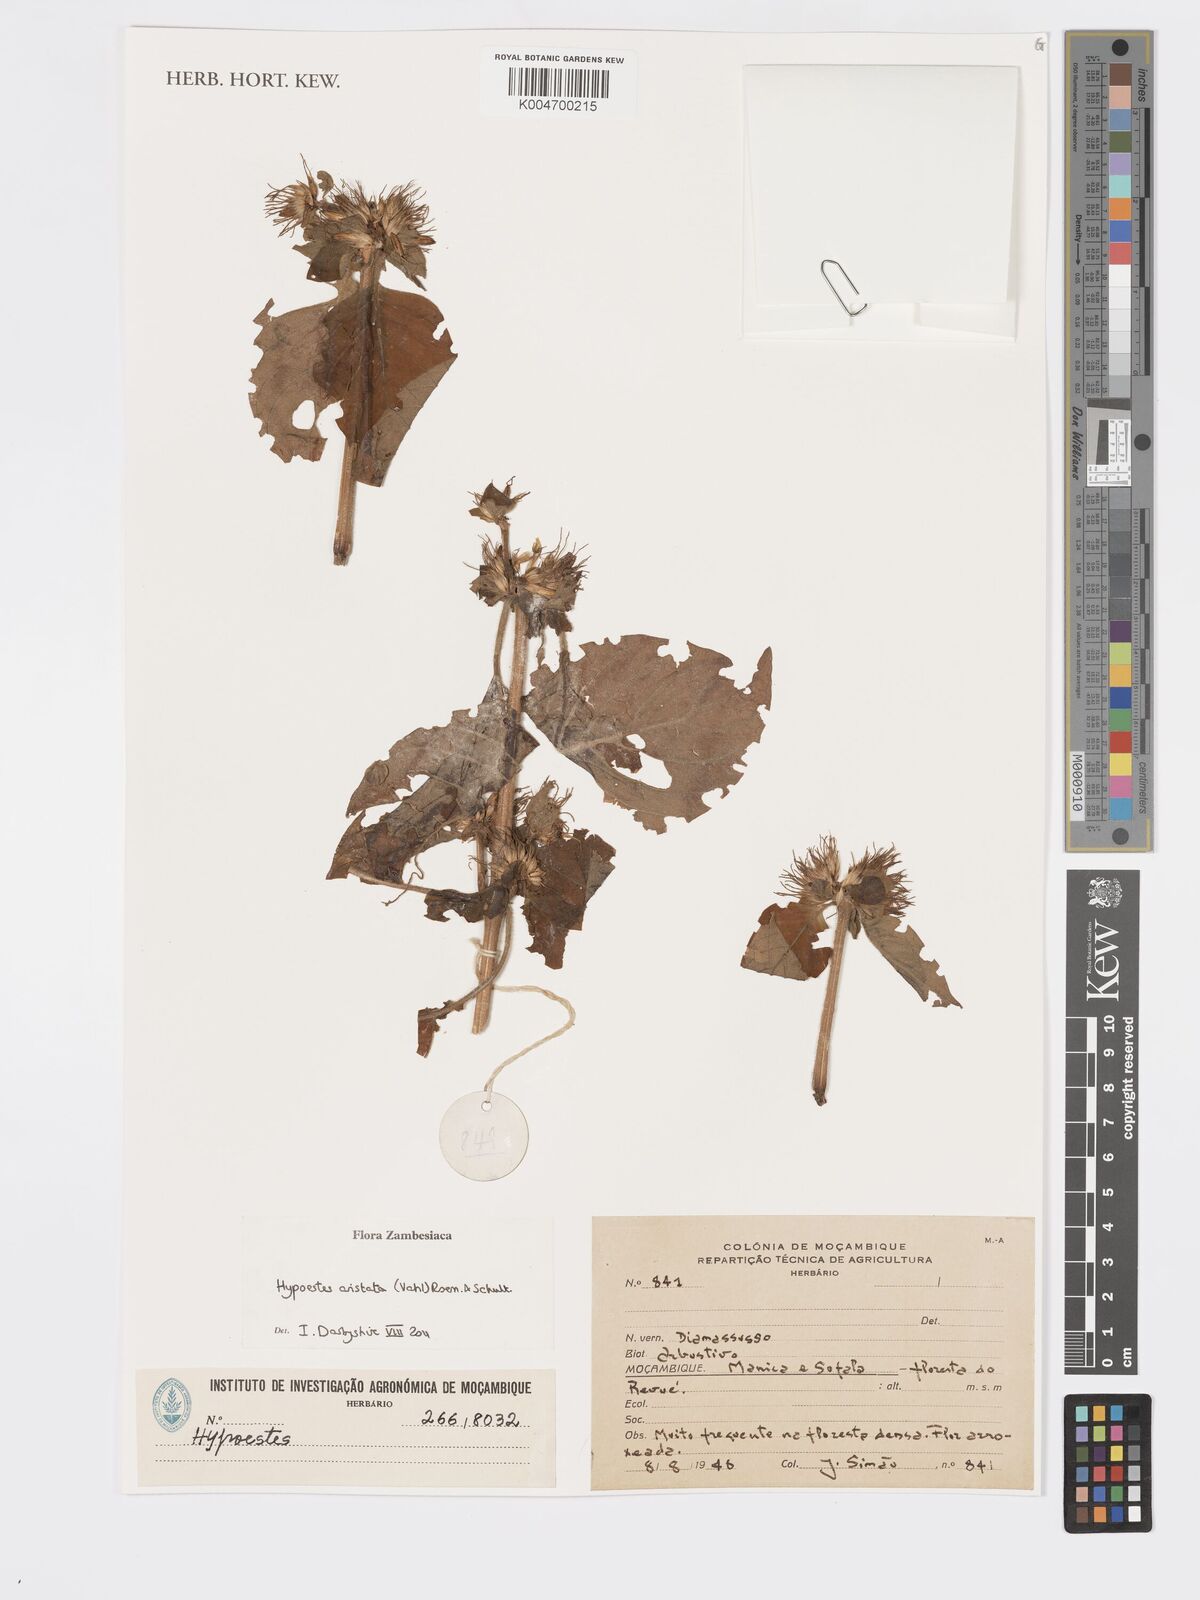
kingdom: Plantae
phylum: Tracheophyta
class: Magnoliopsida
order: Lamiales
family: Acanthaceae
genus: Hypoestes
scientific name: Hypoestes aristata
